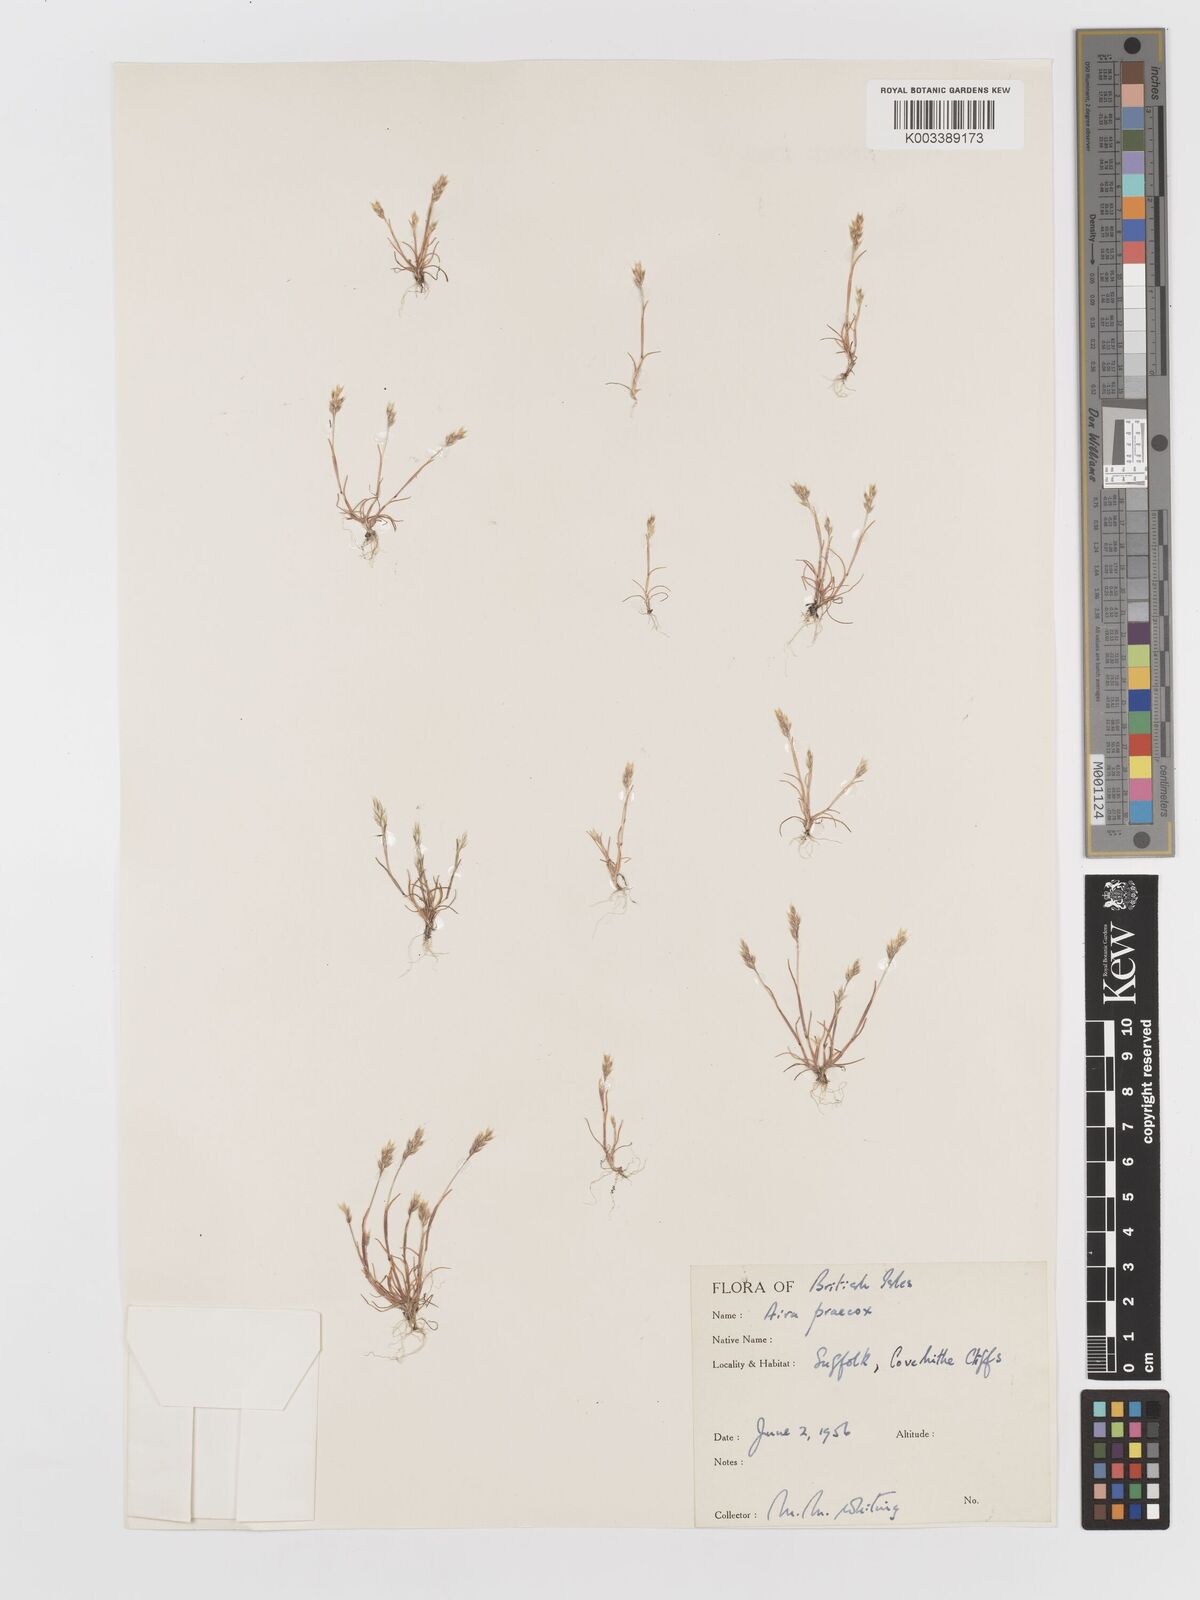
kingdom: Plantae
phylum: Tracheophyta
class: Liliopsida
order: Poales
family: Poaceae
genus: Aira
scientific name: Aira praecox
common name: Early hair-grass
